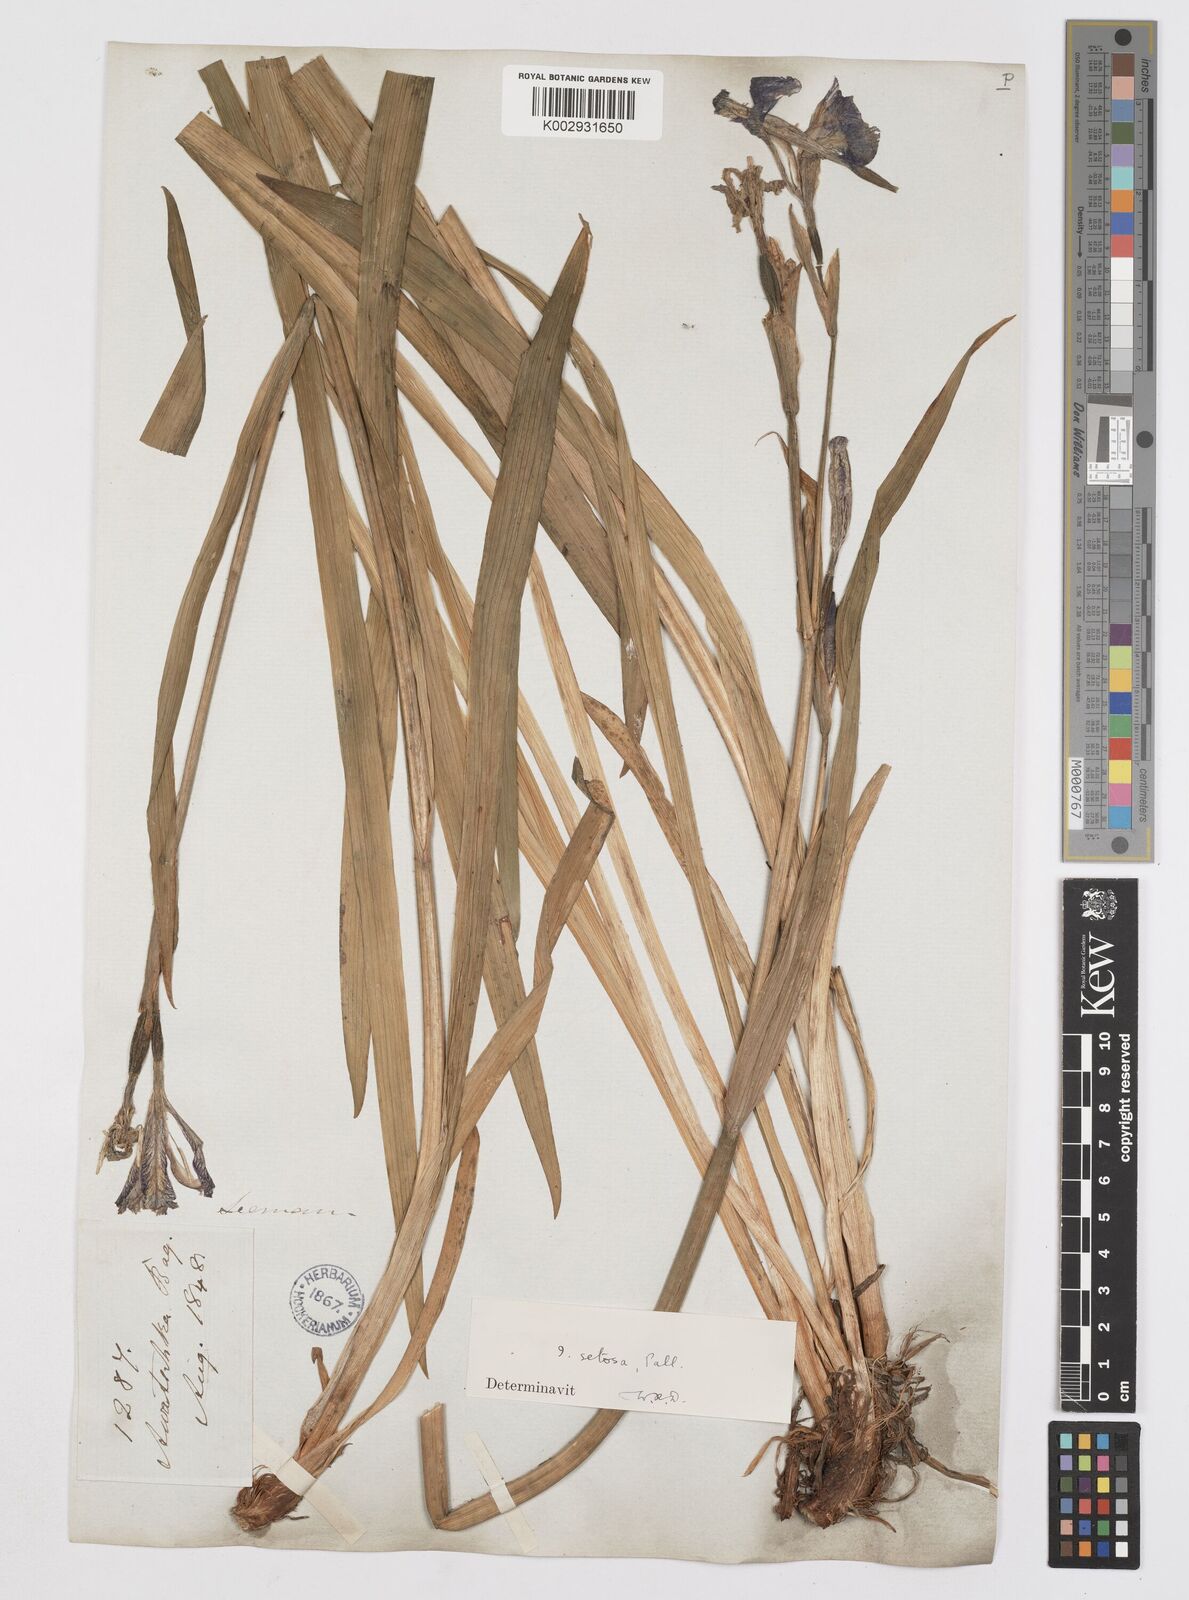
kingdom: Plantae
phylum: Tracheophyta
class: Liliopsida
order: Asparagales
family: Iridaceae
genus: Iris
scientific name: Iris setosa
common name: Arctic blue flag
